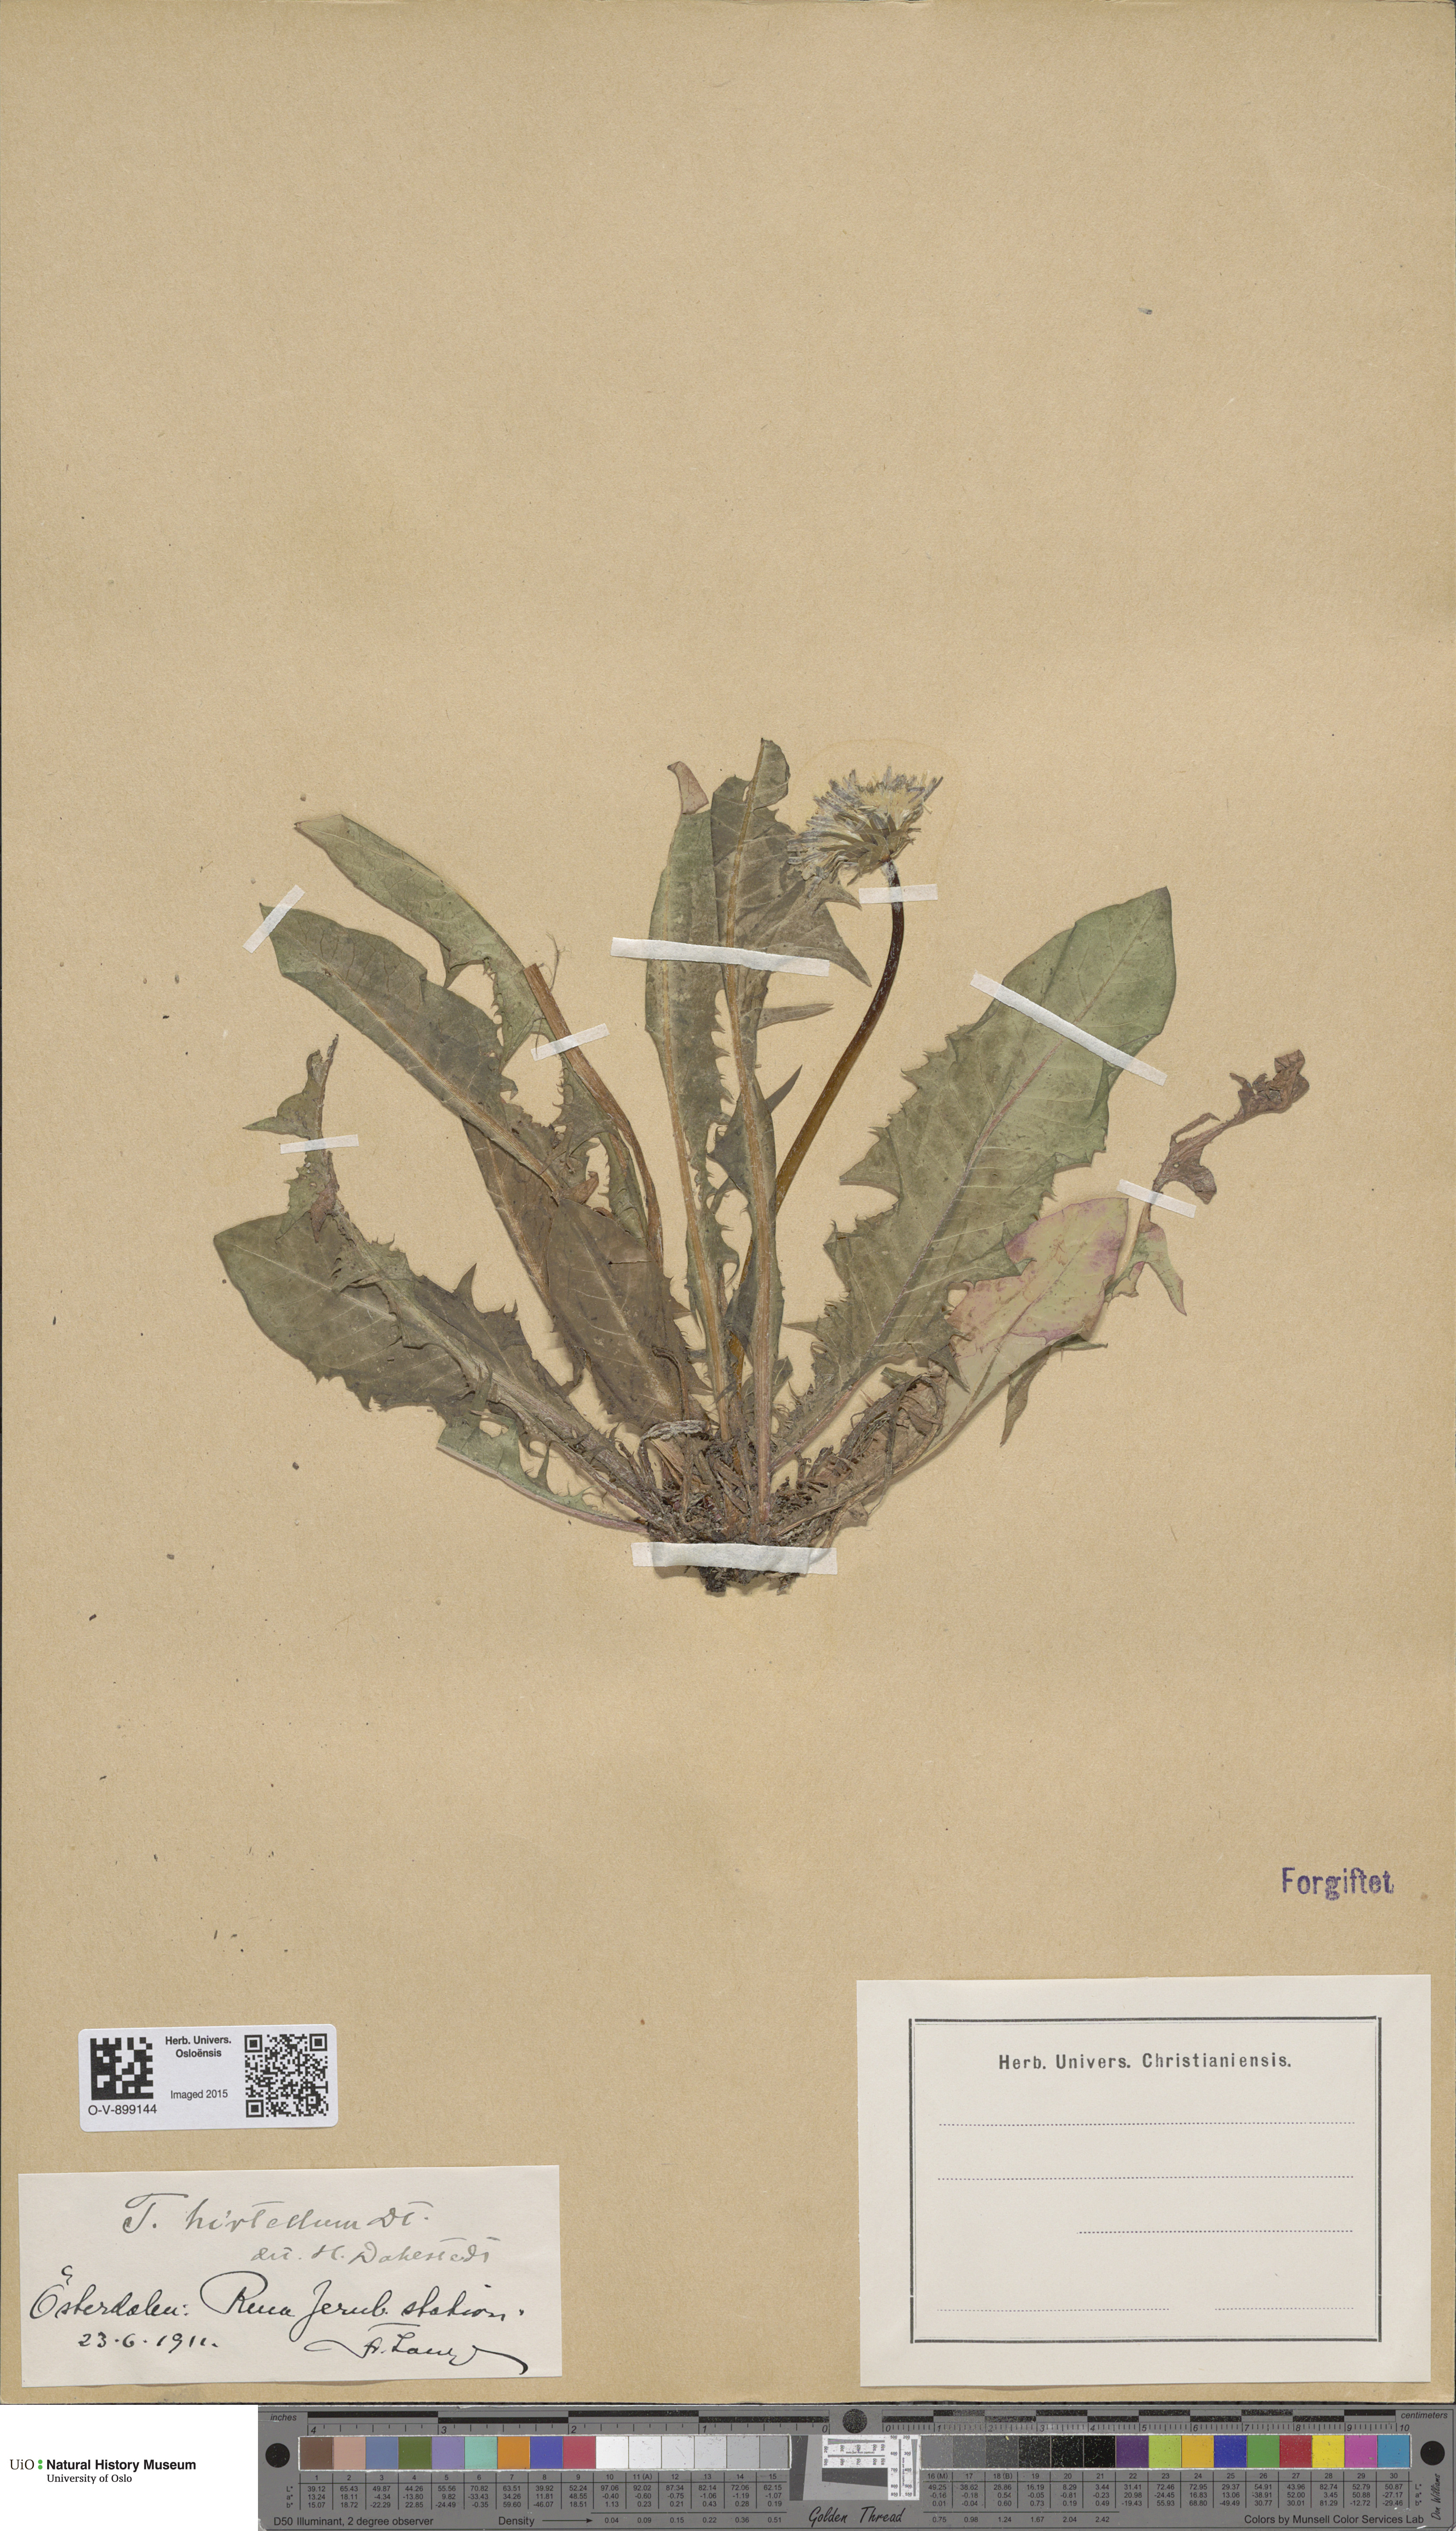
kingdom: Plantae
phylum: Tracheophyta
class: Magnoliopsida
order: Asterales
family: Asteraceae
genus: Taraxacum
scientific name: Taraxacum hirtellum
